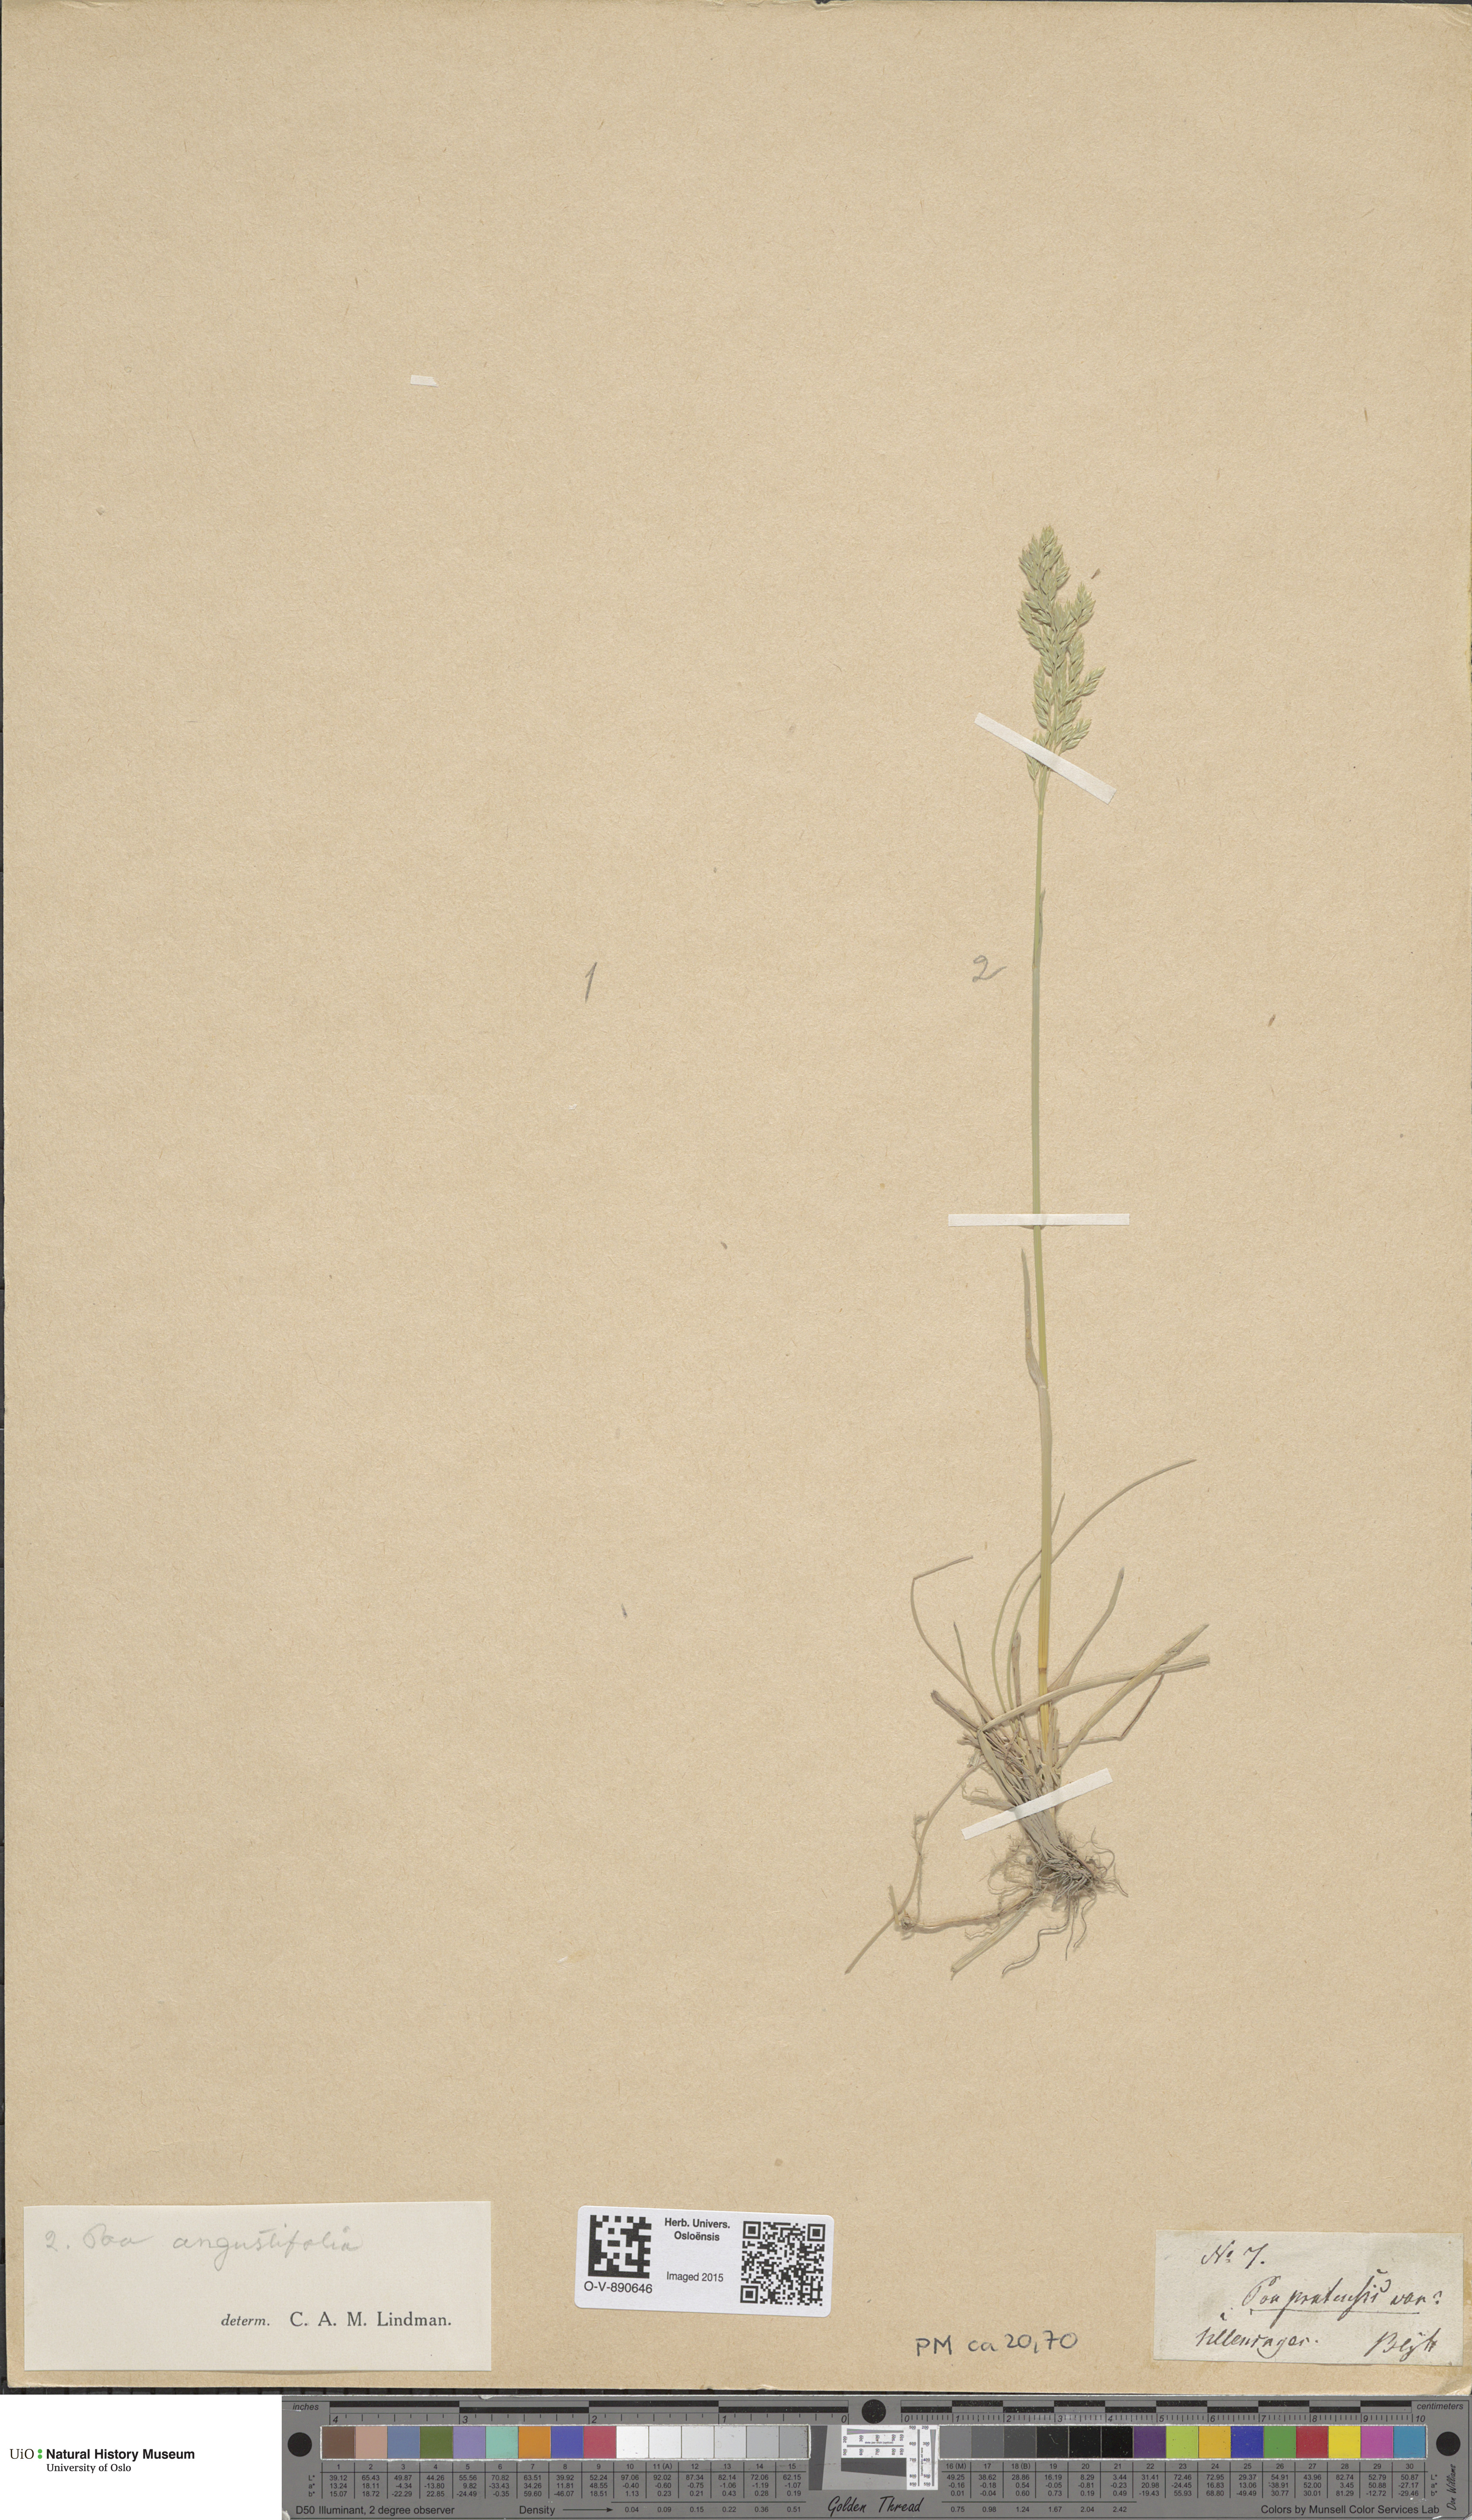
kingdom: Plantae
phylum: Tracheophyta
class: Liliopsida
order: Poales
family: Poaceae
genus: Poa
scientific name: Poa angustifolia
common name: Narrow-leaved meadow-grass
